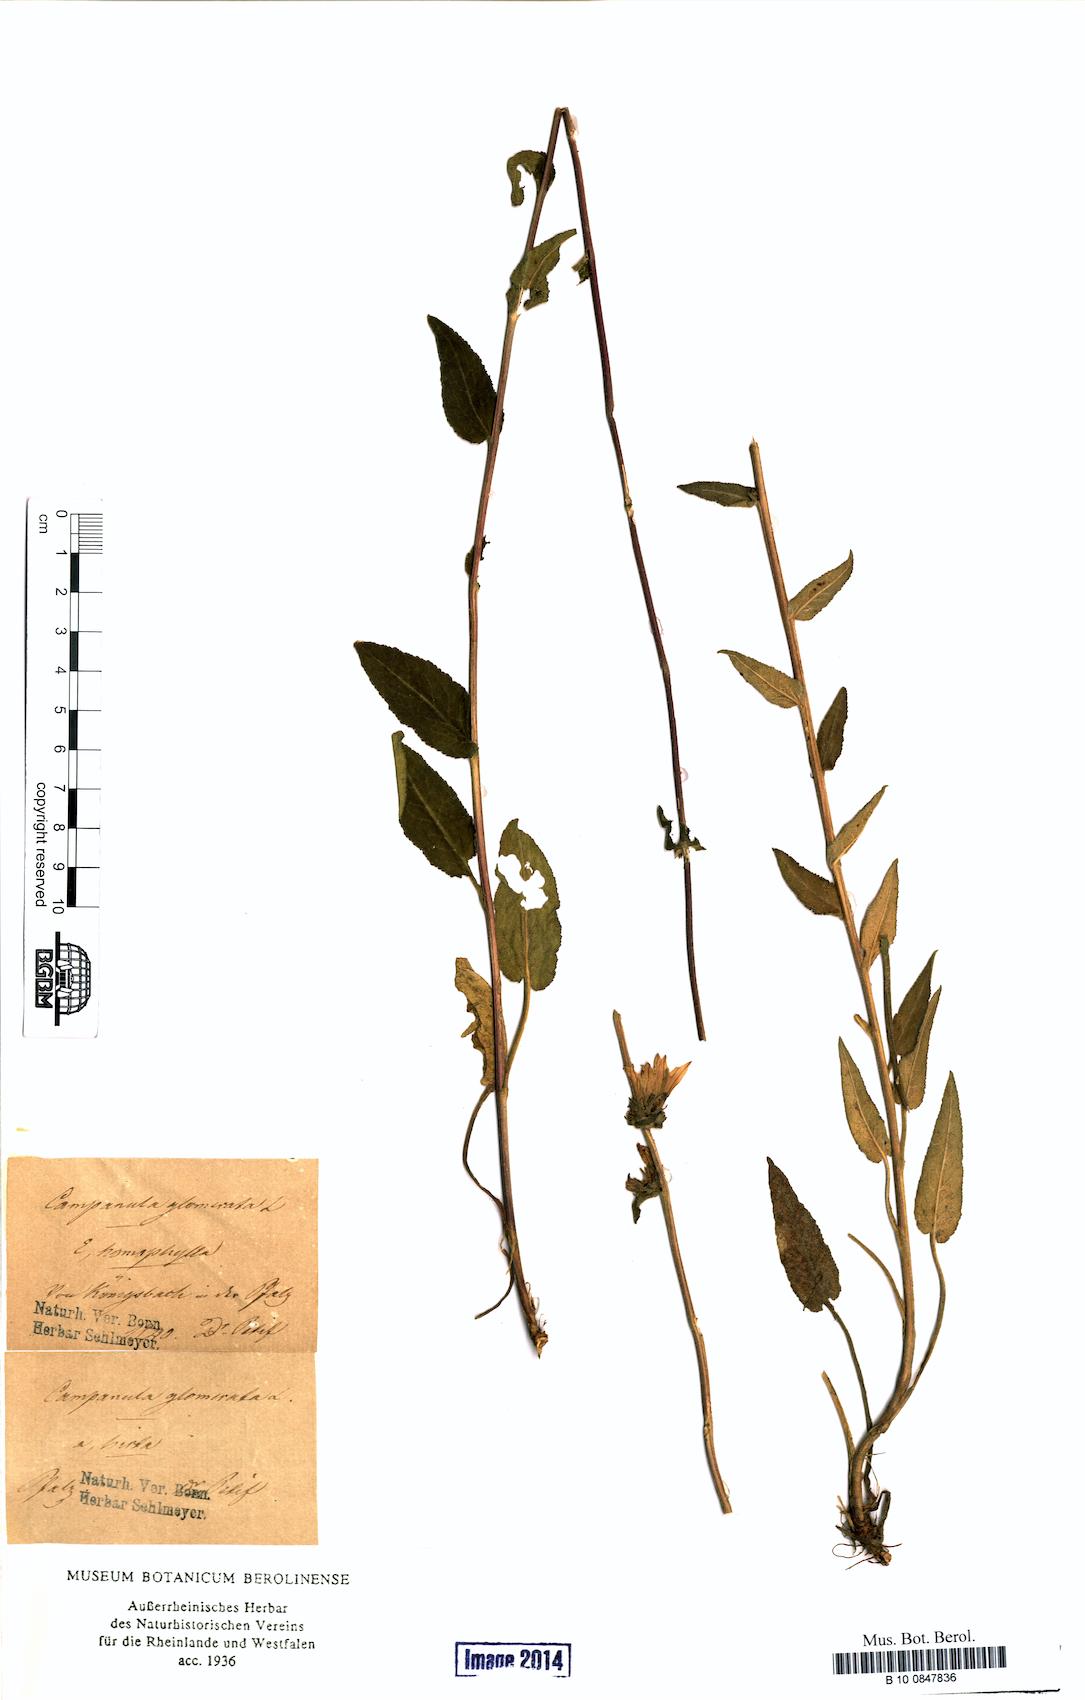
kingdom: Plantae
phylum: Tracheophyta
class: Magnoliopsida
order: Asterales
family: Campanulaceae
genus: Campanula
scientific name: Campanula glomerata
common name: Clustered bellflower
